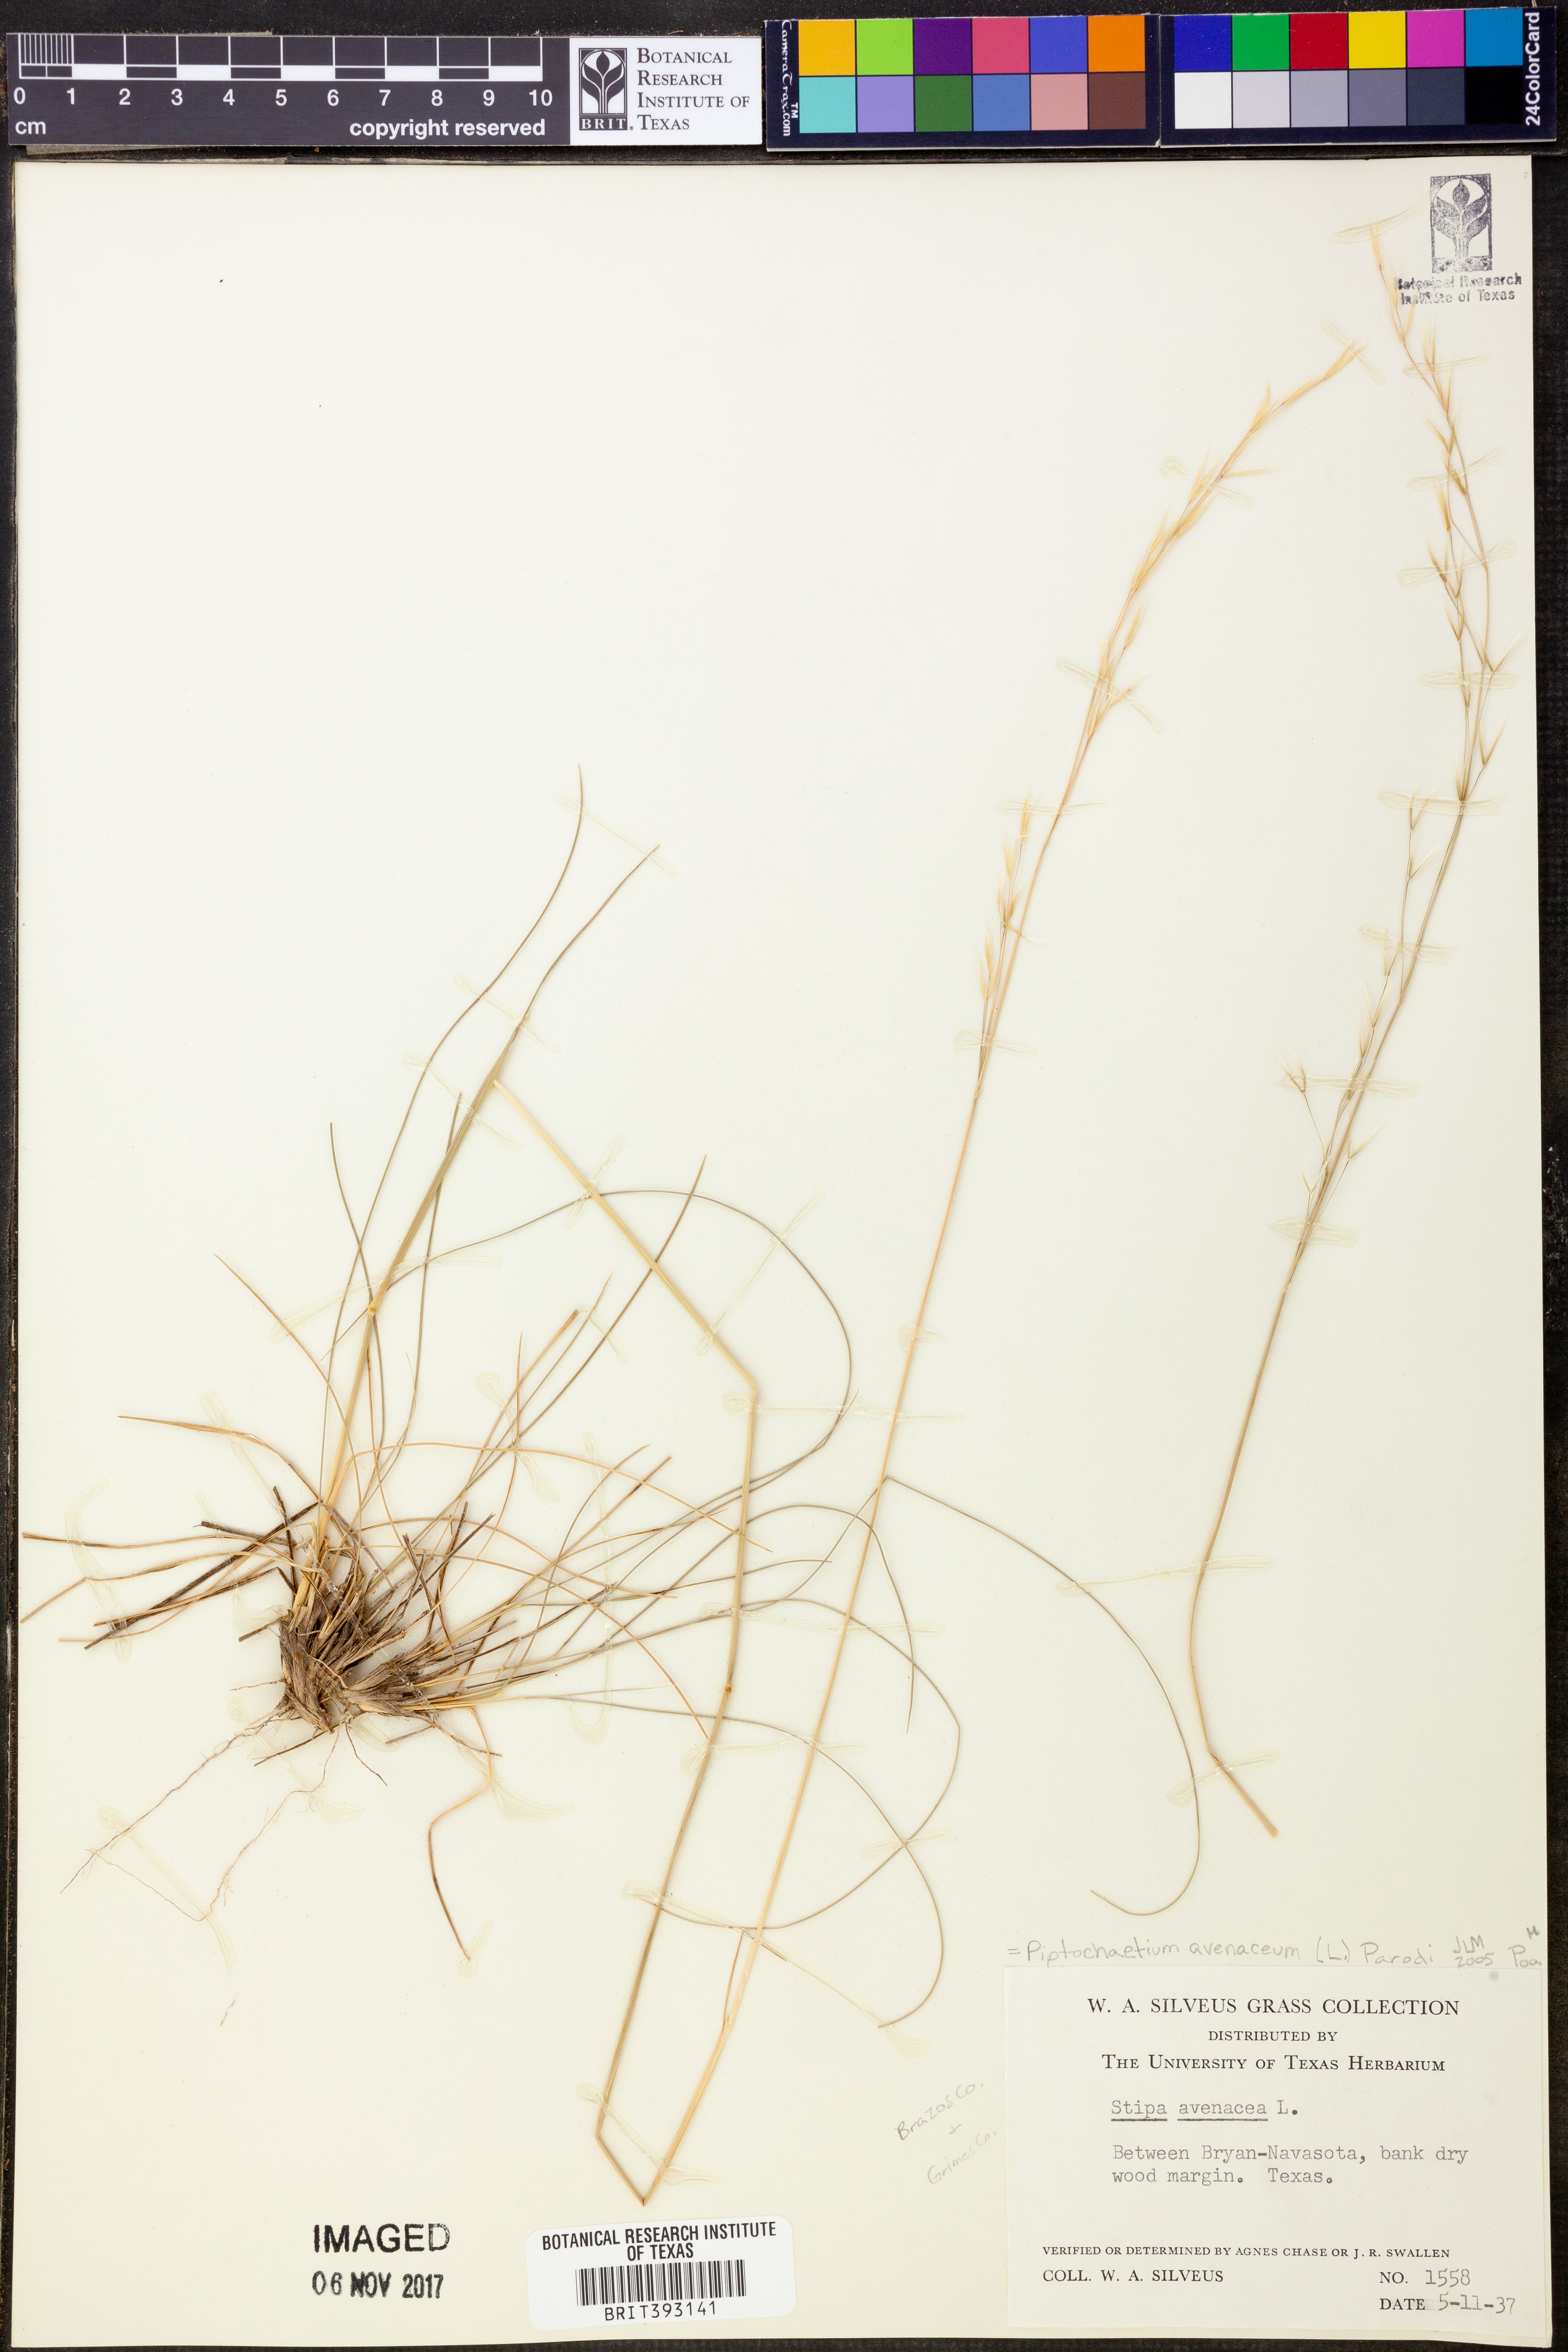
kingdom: Plantae
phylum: Tracheophyta
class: Liliopsida
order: Poales
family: Poaceae
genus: Piptochaetium
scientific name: Piptochaetium avenaceum
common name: Black bunchgrass
